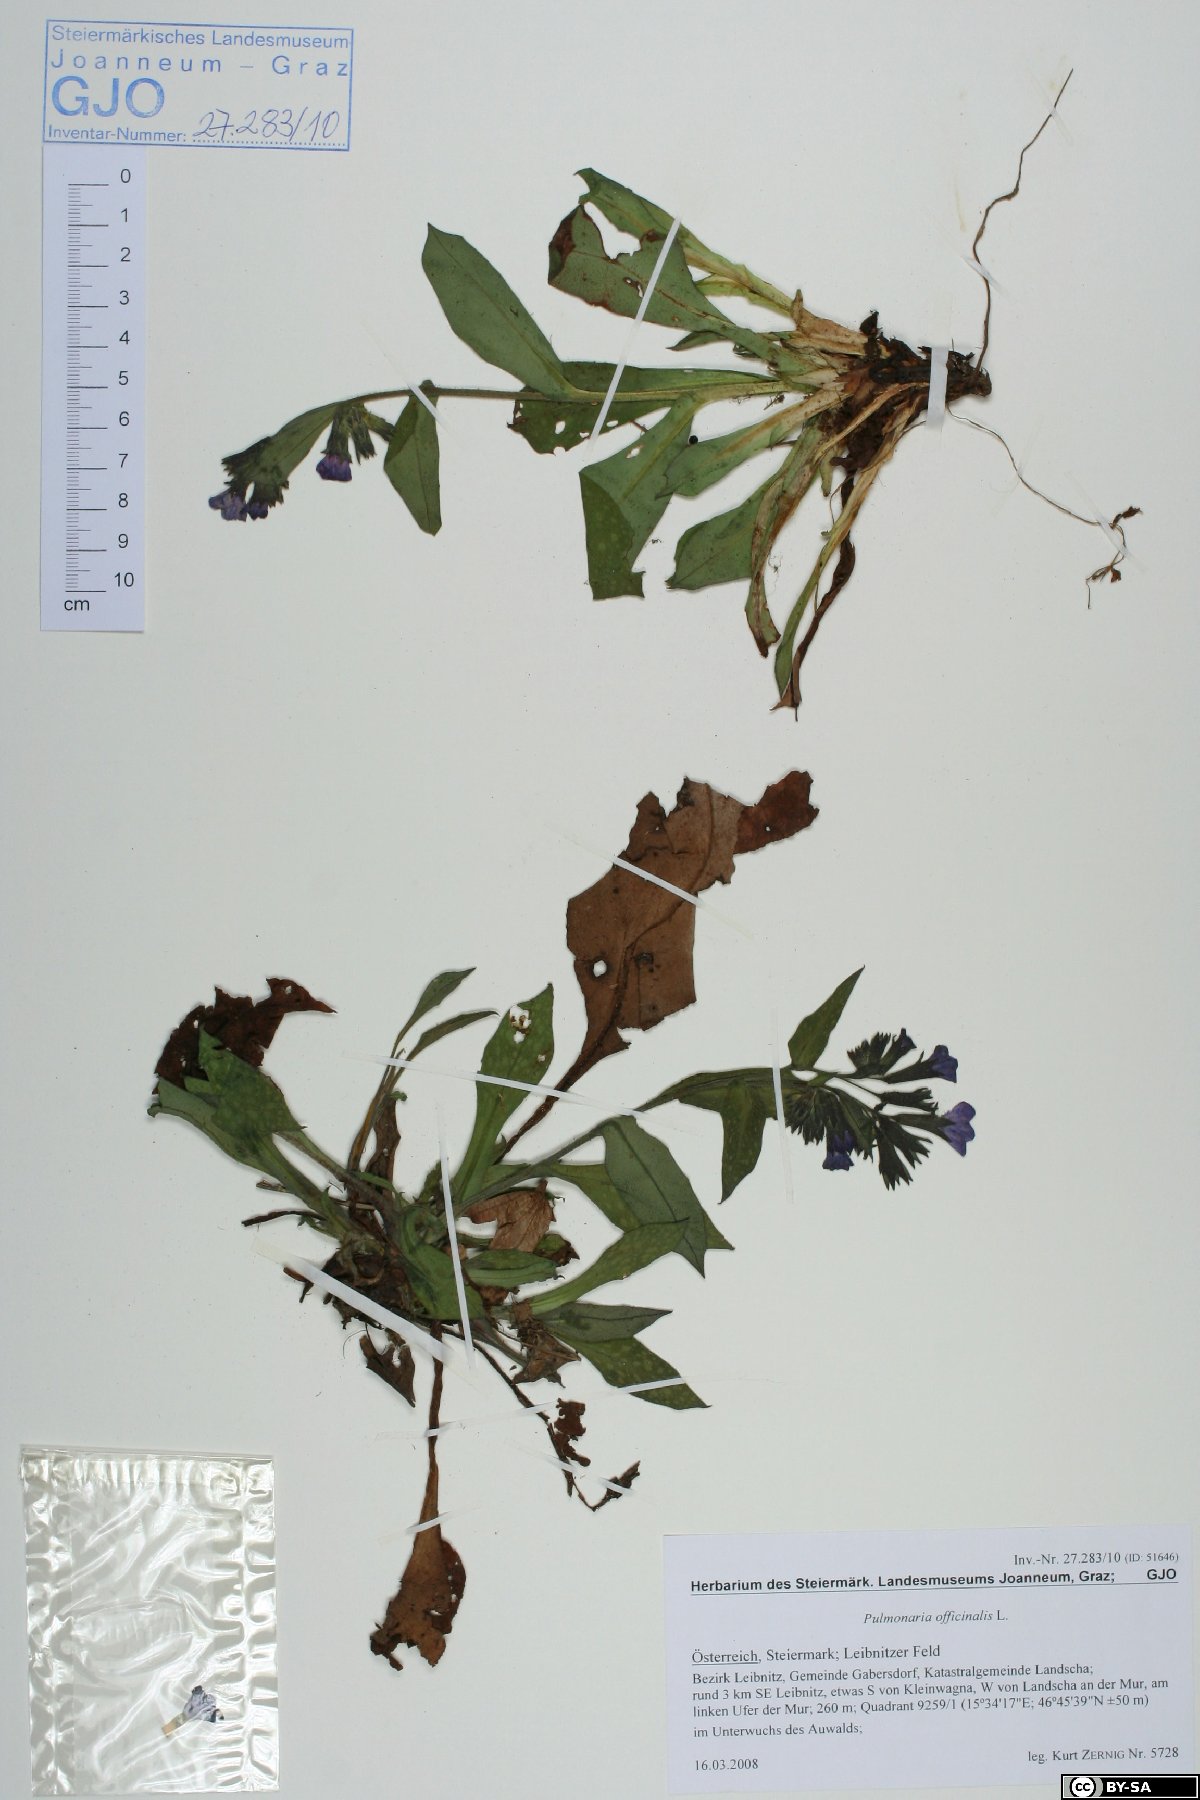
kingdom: Plantae
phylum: Tracheophyta
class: Magnoliopsida
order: Boraginales
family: Boraginaceae
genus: Pulmonaria
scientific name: Pulmonaria officinalis
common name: Lungwort
